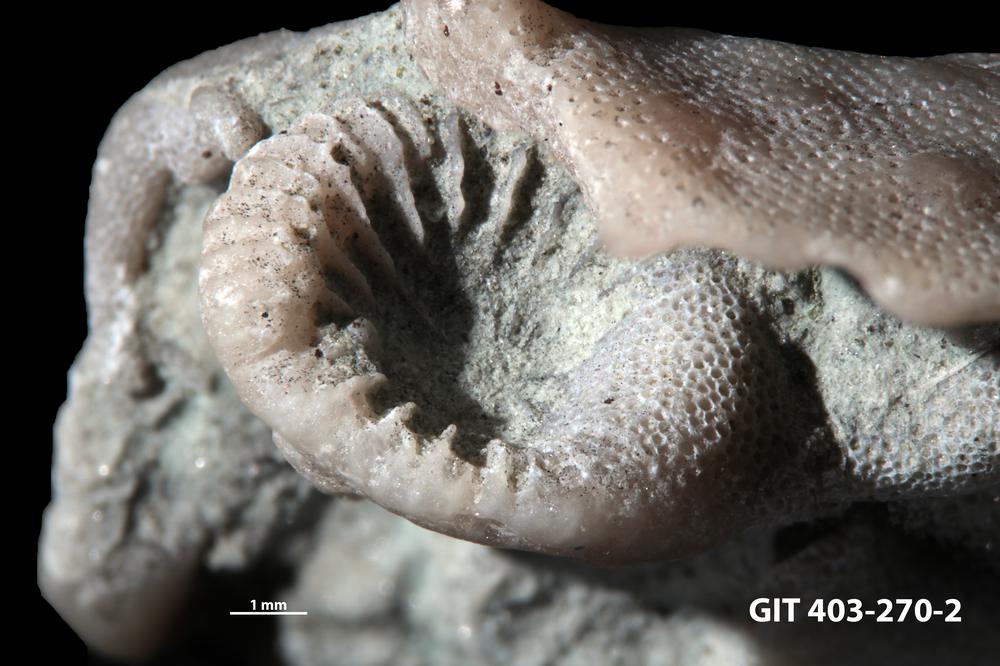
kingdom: Animalia
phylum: Cnidaria
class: Anthozoa
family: Entelophyllidae
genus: Entelophyllum
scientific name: Entelophyllum
